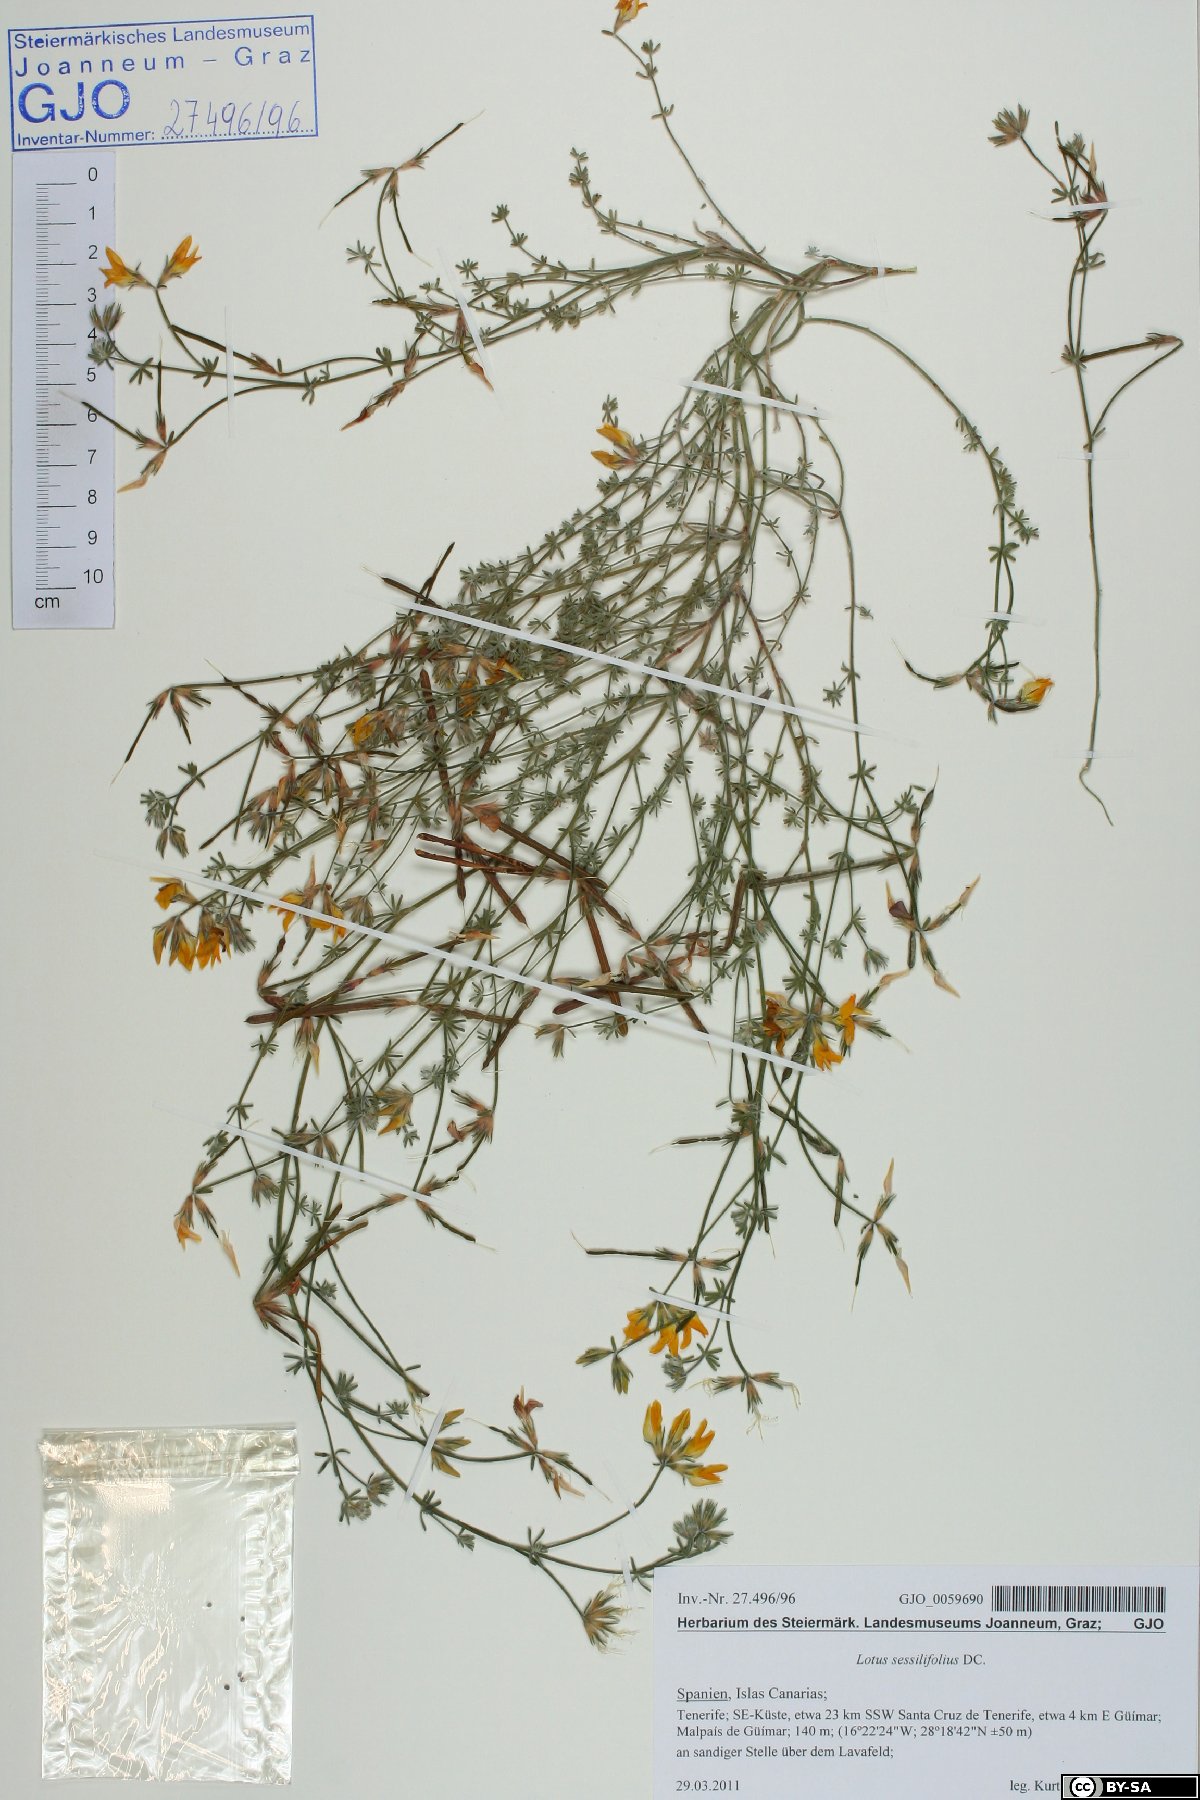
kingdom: Plantae
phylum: Tracheophyta
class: Magnoliopsida
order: Fabales
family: Fabaceae
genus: Lotus
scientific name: Lotus sessilifolius
